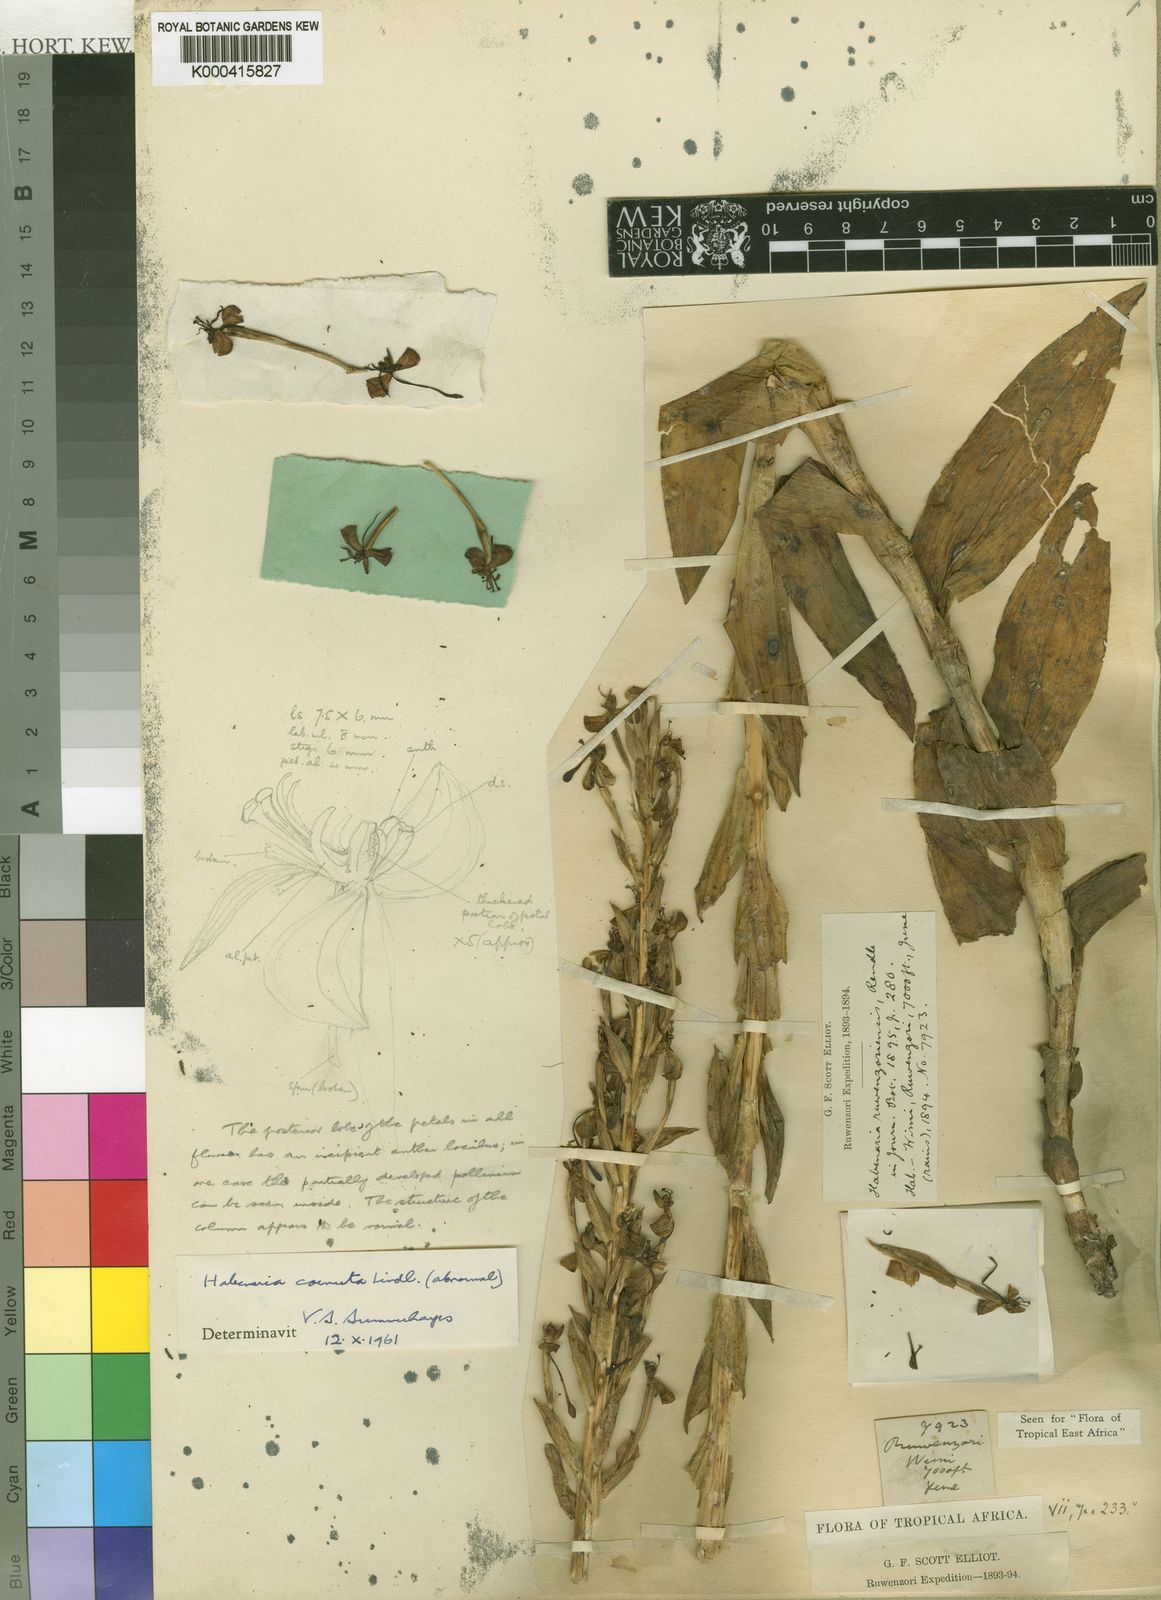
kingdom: Plantae
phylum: Tracheophyta
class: Liliopsida
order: Asparagales
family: Orchidaceae
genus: Habenaria
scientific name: Habenaria cornuta
